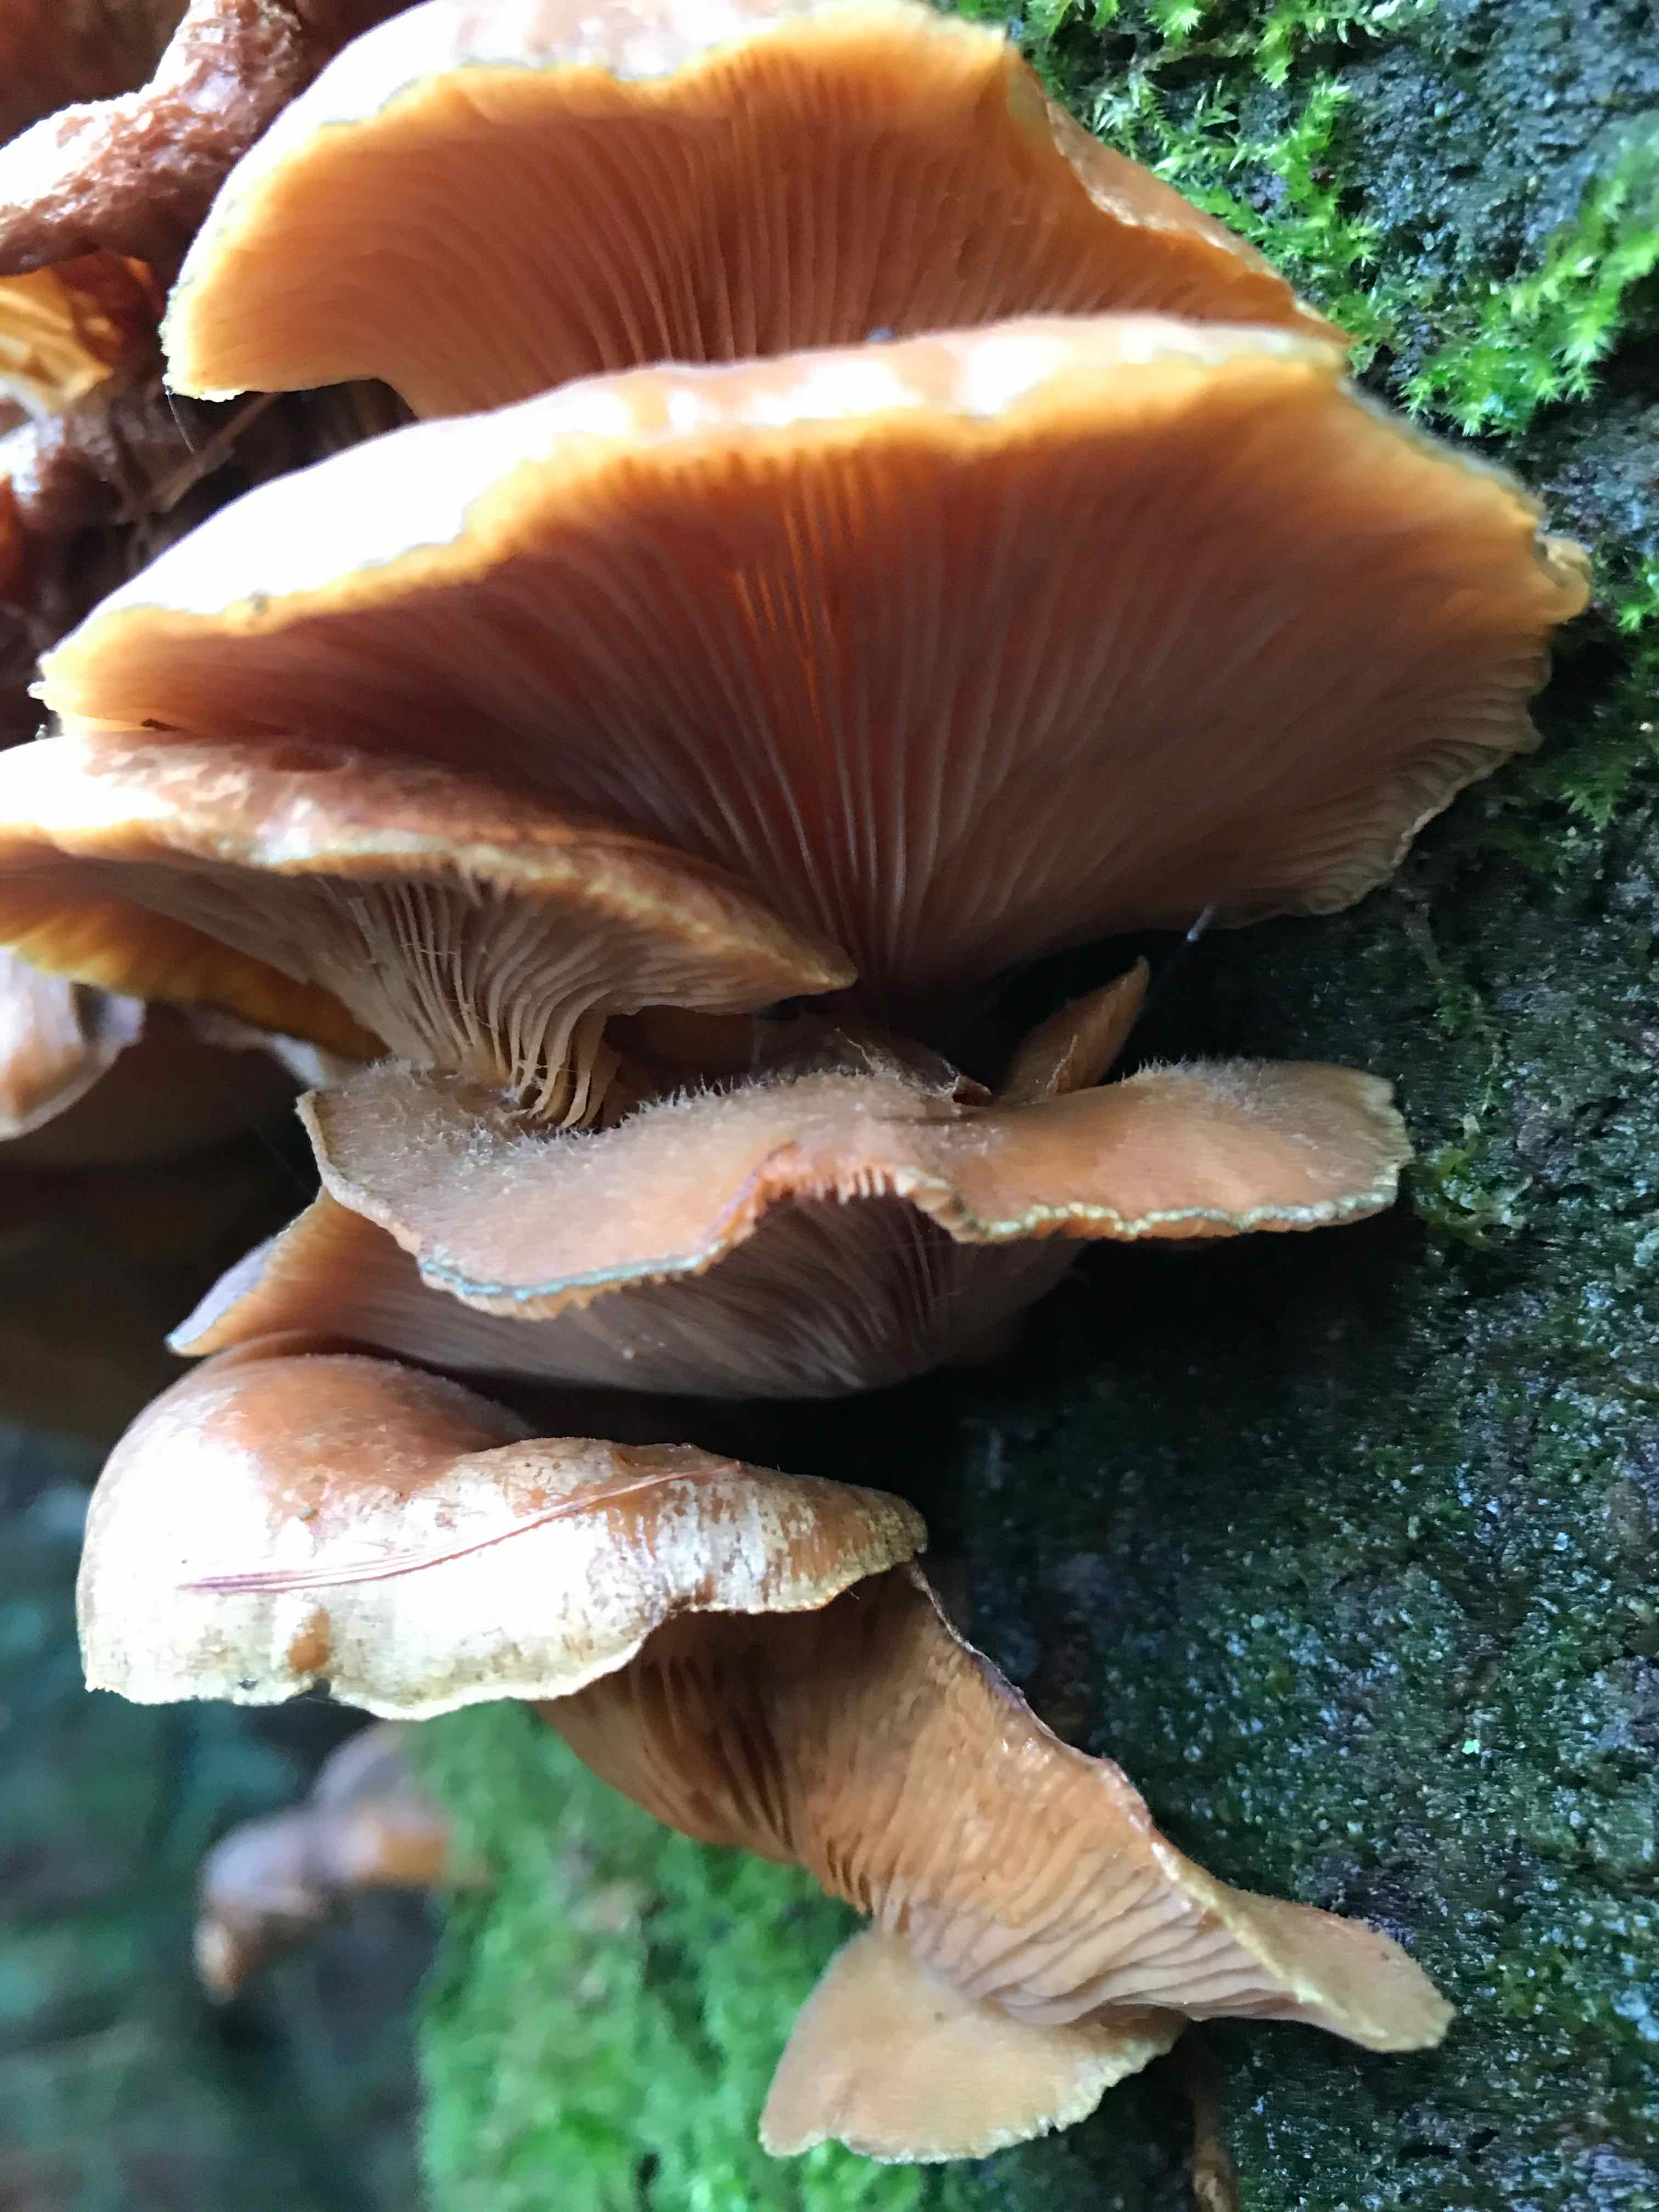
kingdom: Fungi
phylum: Basidiomycota
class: Agaricomycetes
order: Agaricales
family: Sarcomyxaceae
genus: Sarcomyxa
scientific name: Sarcomyxa serotina
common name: gummihat
